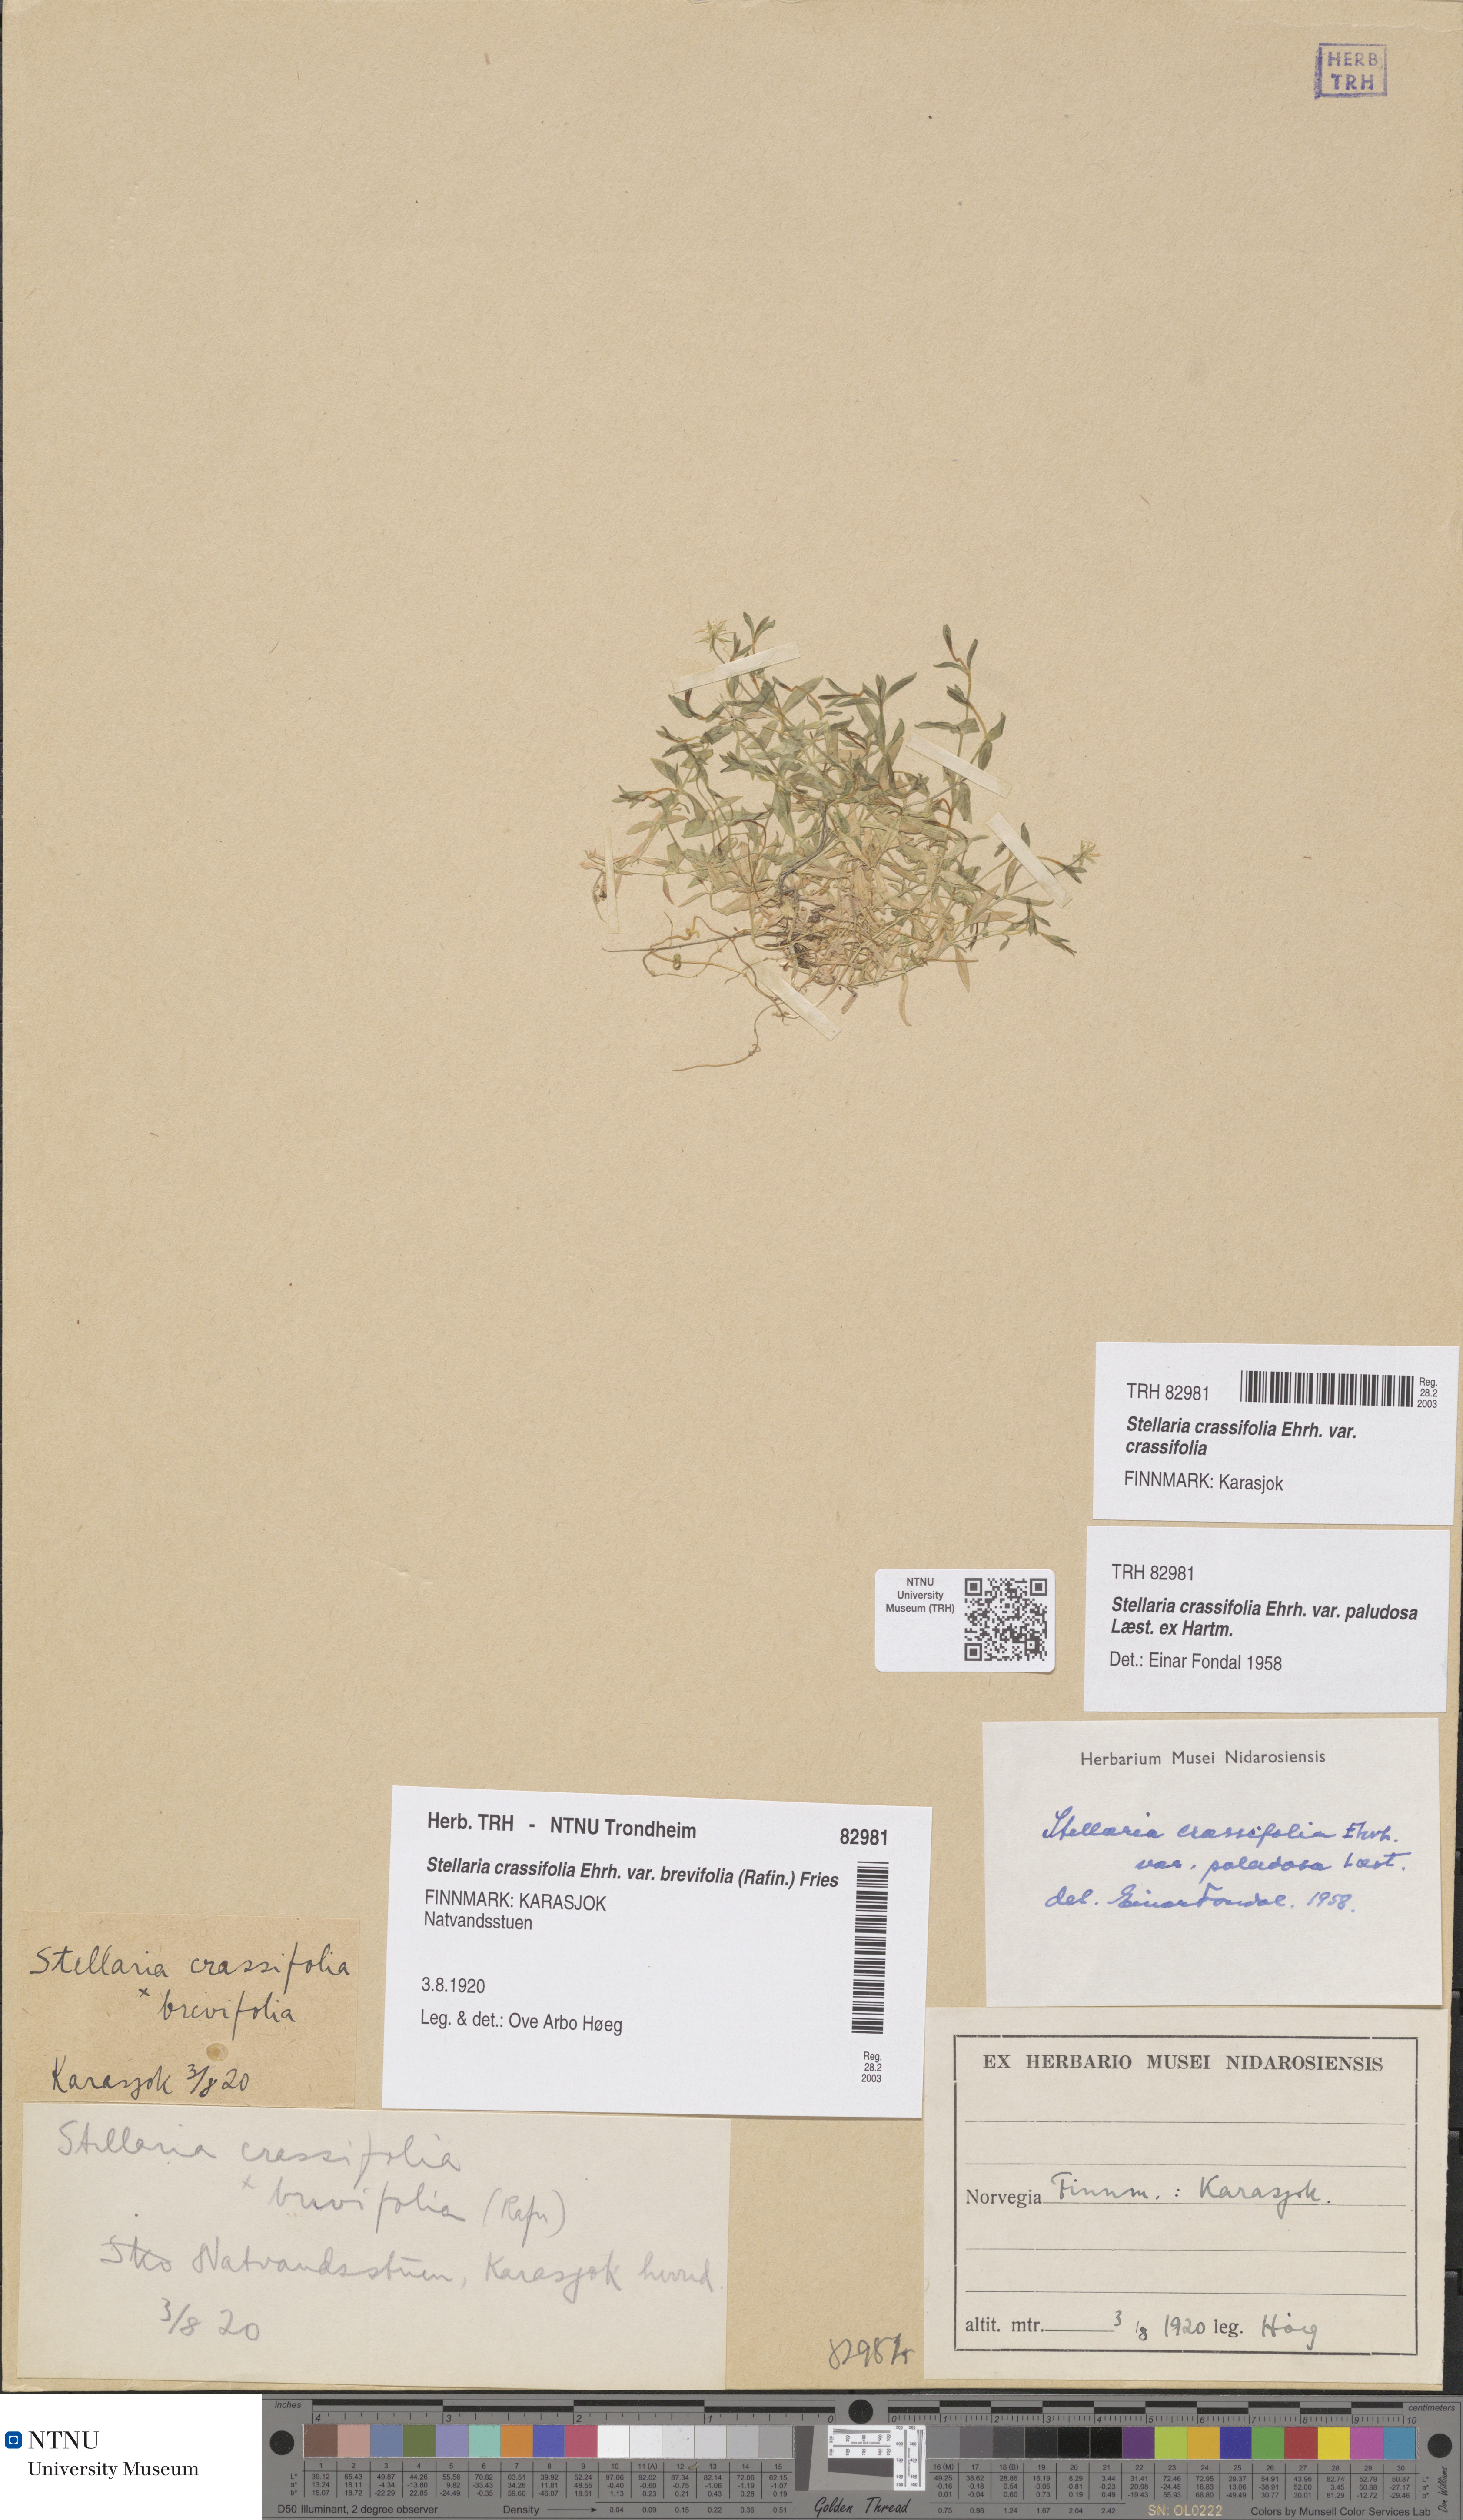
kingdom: Plantae
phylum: Tracheophyta
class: Magnoliopsida
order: Caryophyllales
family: Caryophyllaceae
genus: Stellaria
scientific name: Stellaria crassifolia
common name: Fleshy starwort
